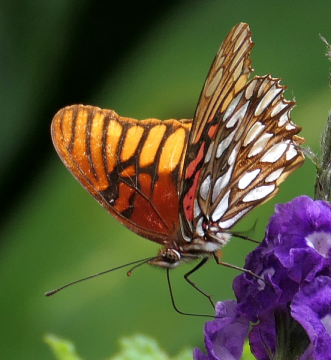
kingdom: Animalia
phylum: Arthropoda
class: Insecta
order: Lepidoptera
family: Nymphalidae
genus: Dione
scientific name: Dione moneta
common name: Mexican Silverspot
